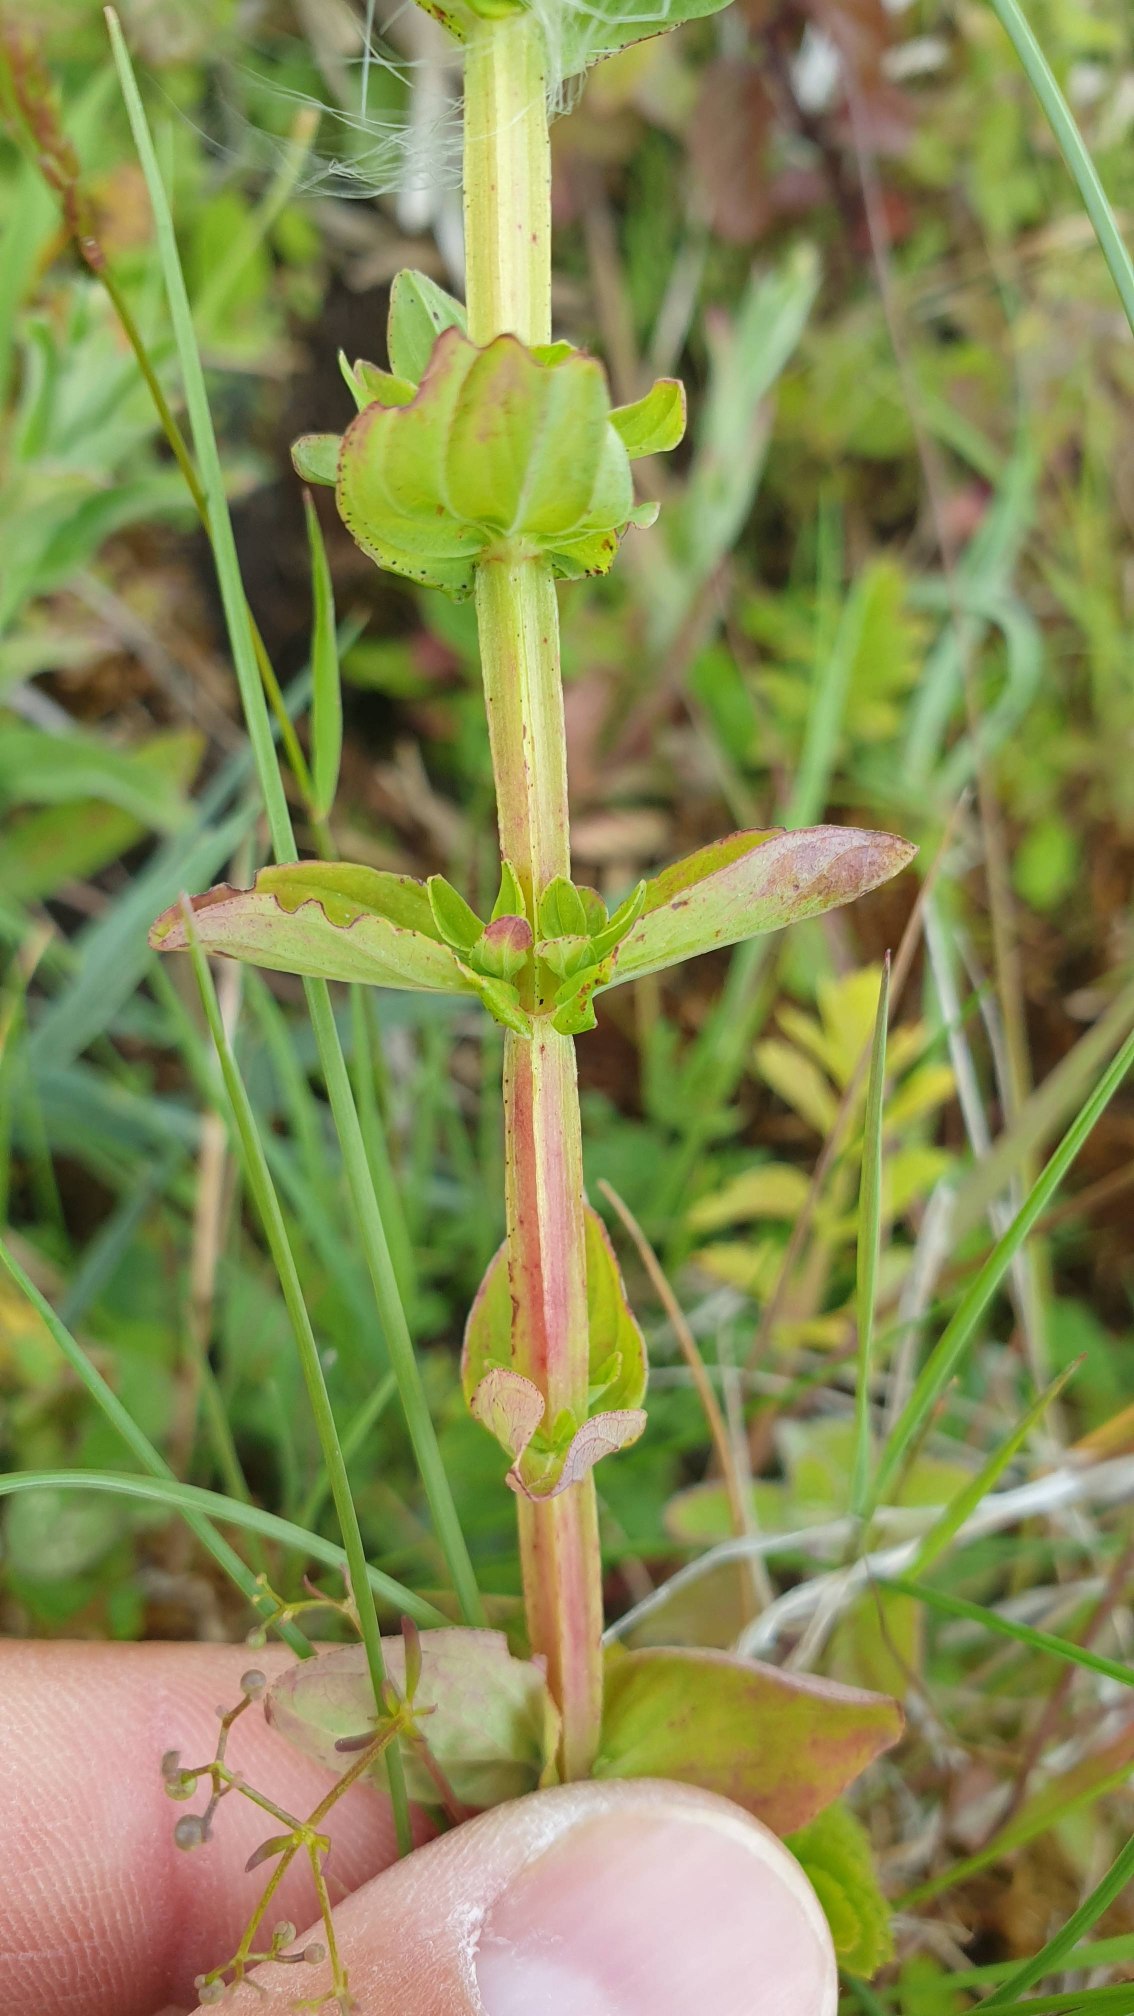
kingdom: Plantae
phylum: Tracheophyta
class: Magnoliopsida
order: Malpighiales
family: Hypericaceae
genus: Hypericum
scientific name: Hypericum tetrapterum
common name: Vinget perikon
